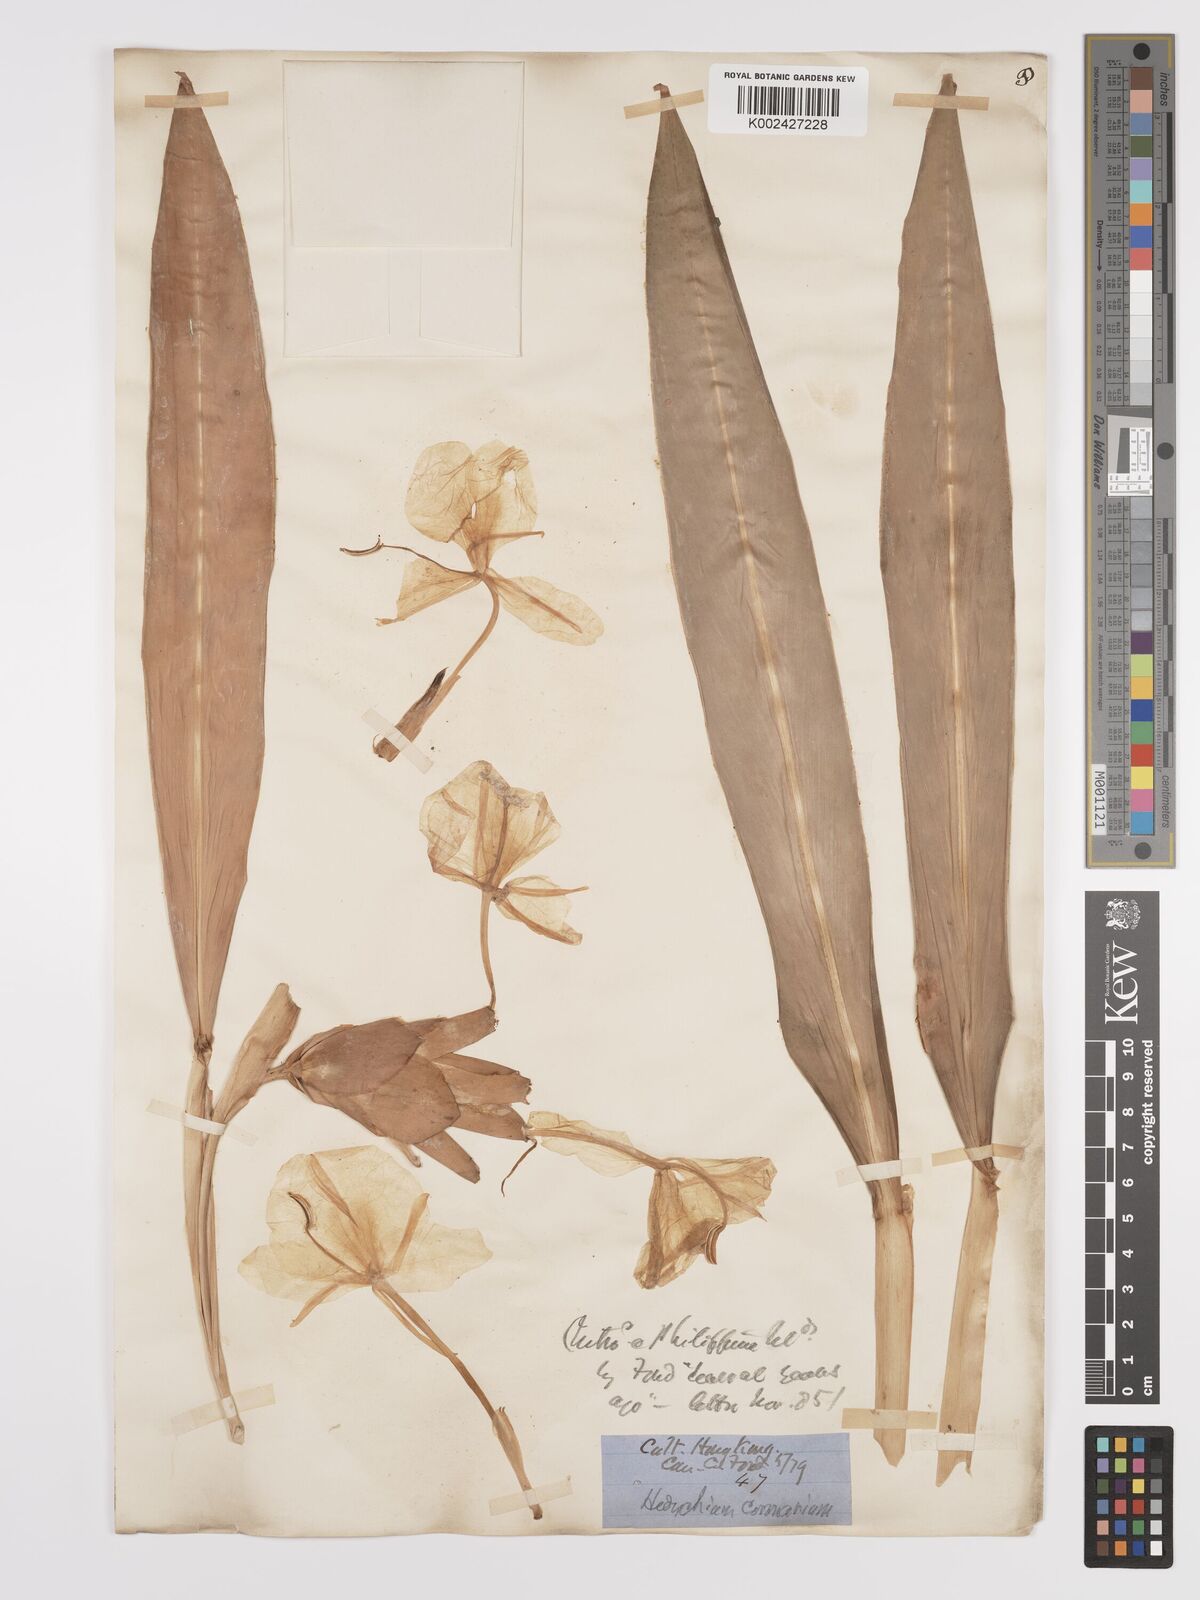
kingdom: Plantae
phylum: Tracheophyta
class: Liliopsida
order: Zingiberales
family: Zingiberaceae
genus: Hedychium
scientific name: Hedychium coronarium
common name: White garland-lily
